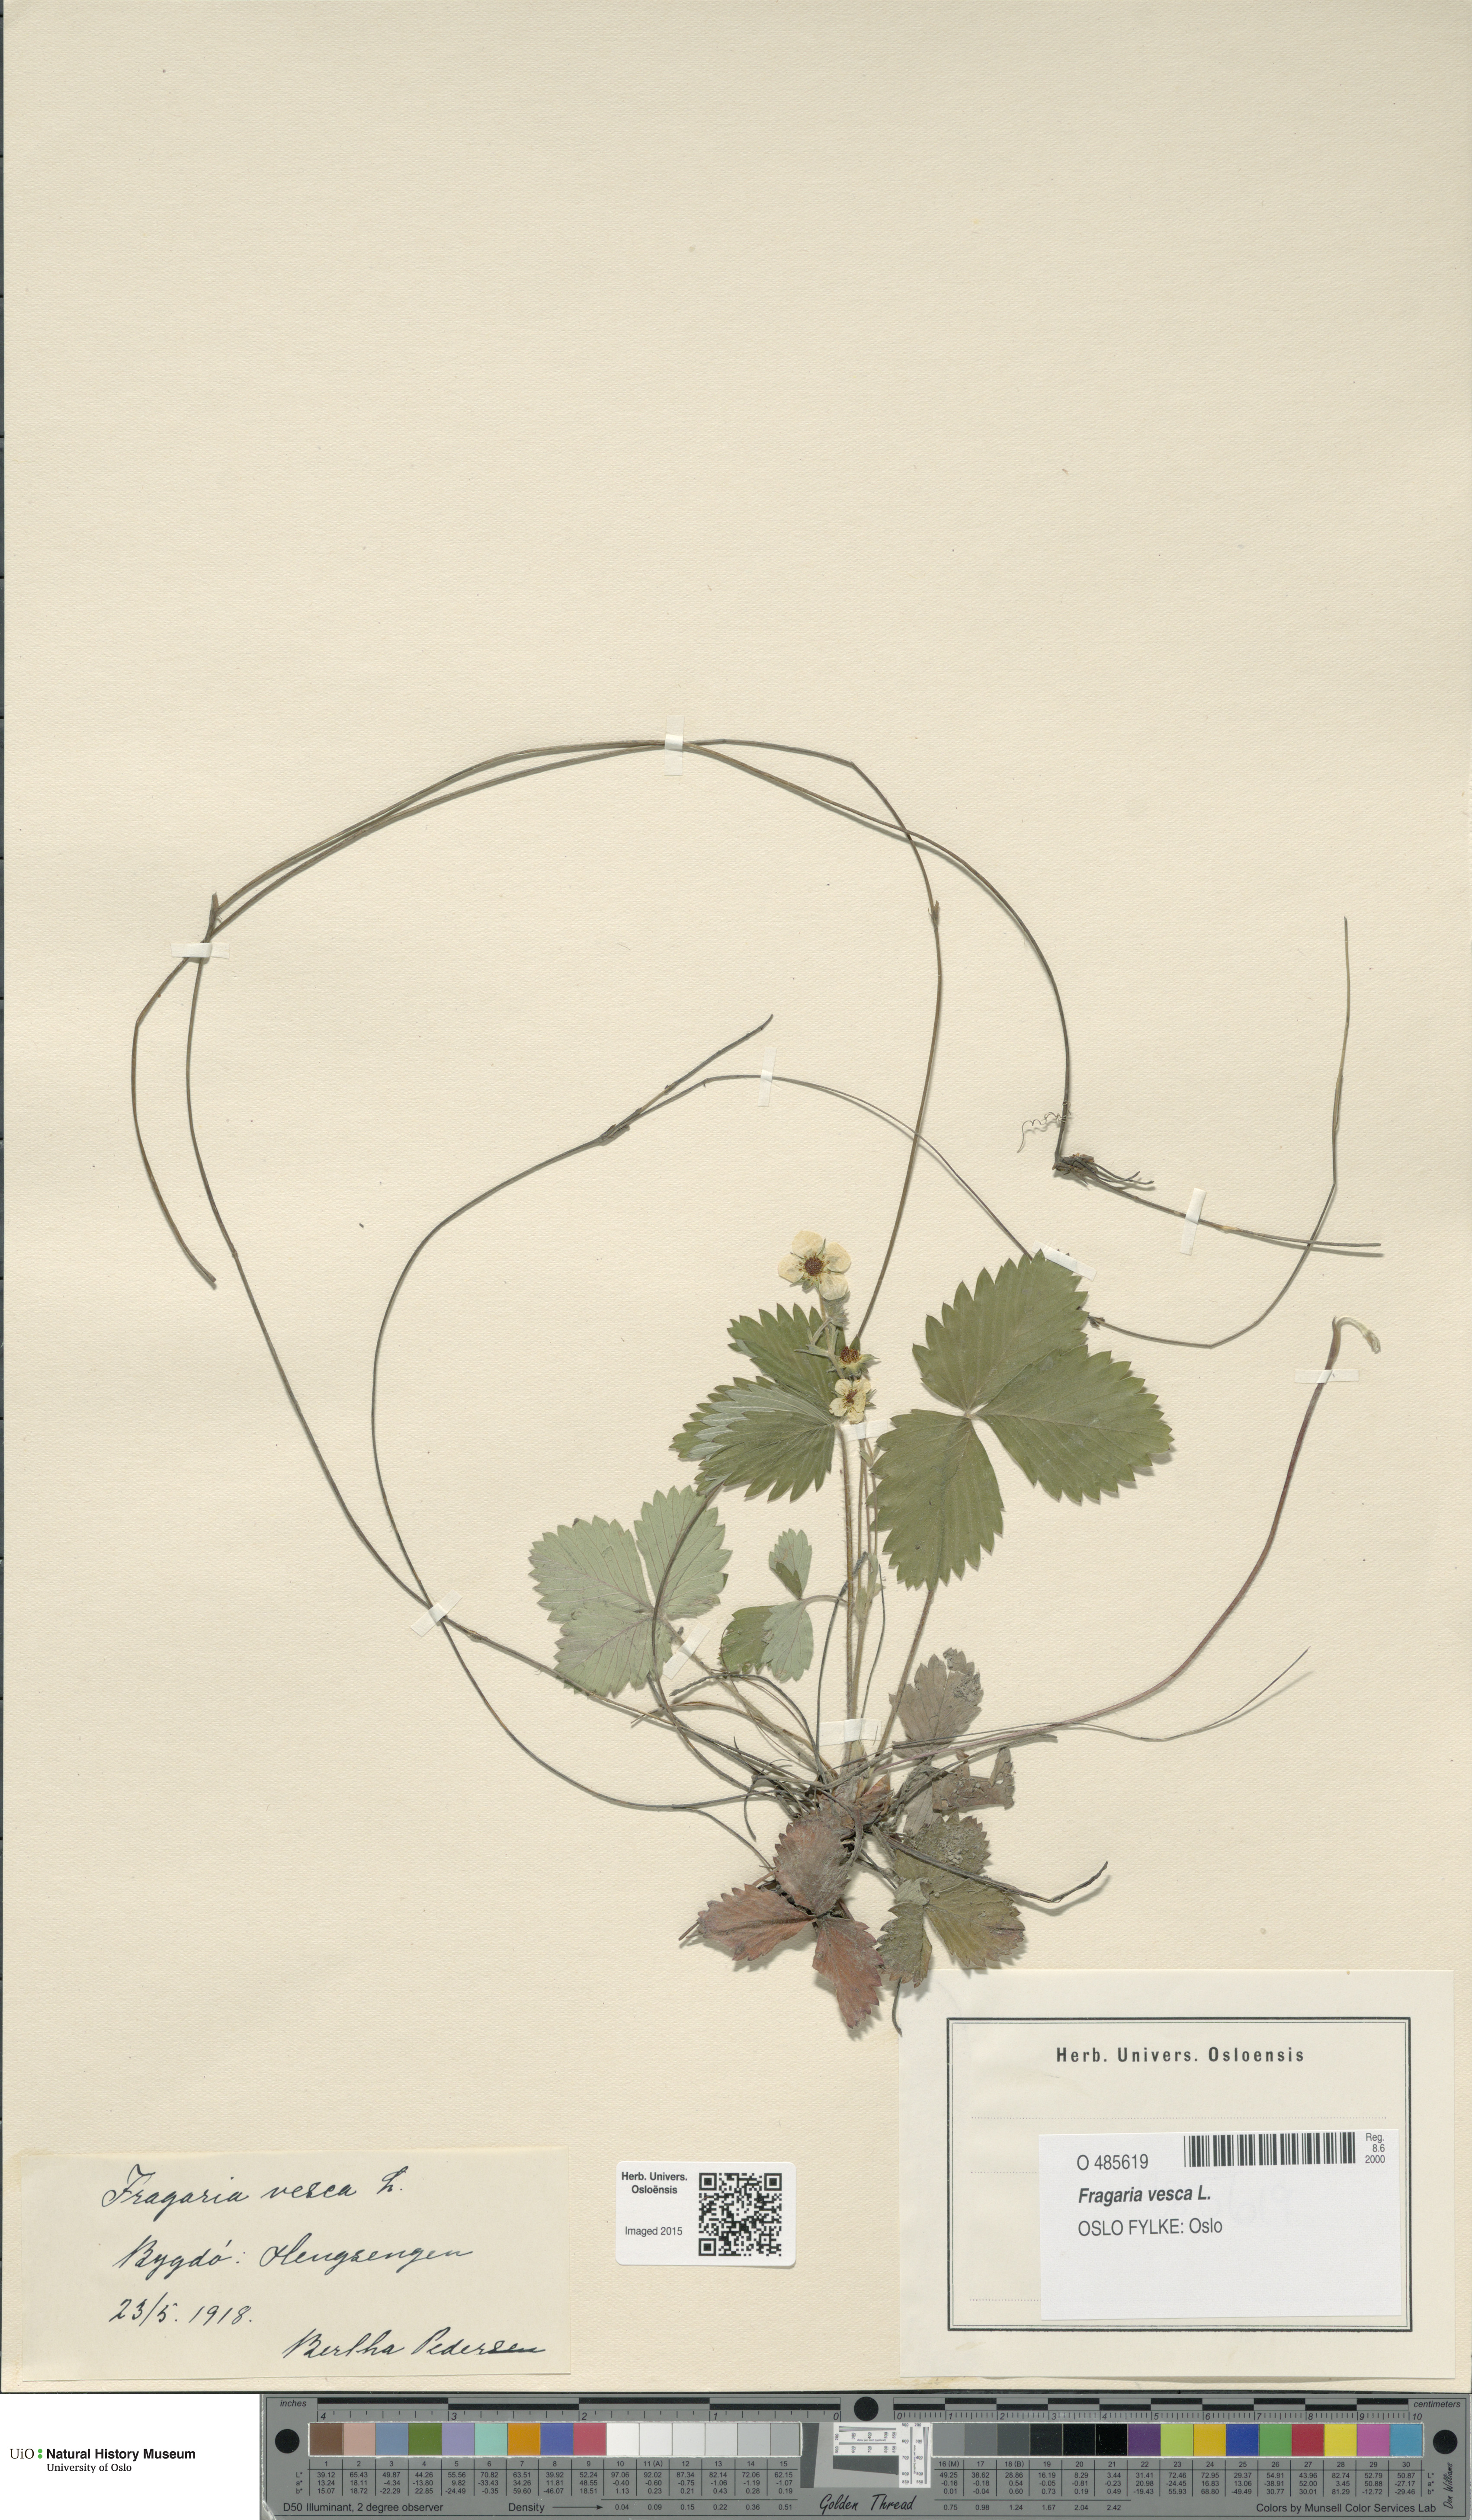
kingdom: Plantae
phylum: Tracheophyta
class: Magnoliopsida
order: Rosales
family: Rosaceae
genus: Fragaria
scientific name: Fragaria vesca
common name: Wild strawberry
